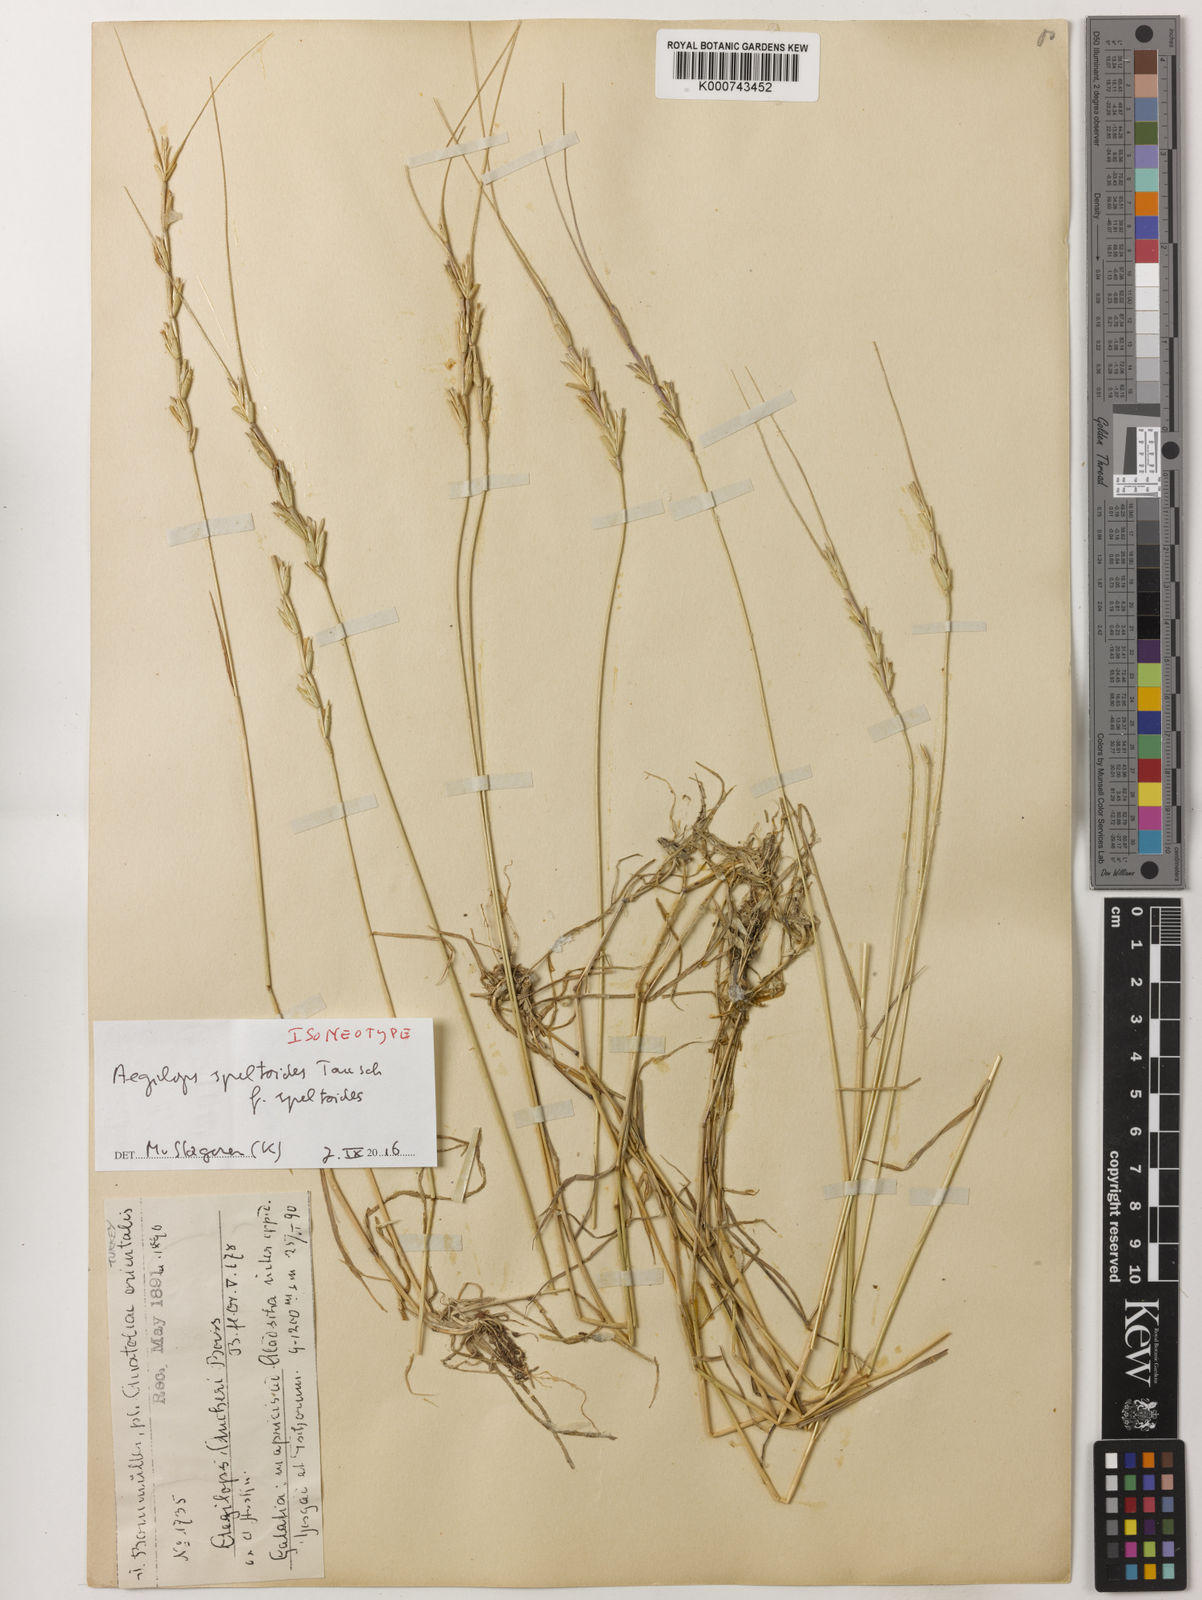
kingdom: Plantae
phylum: Tracheophyta
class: Liliopsida
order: Poales
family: Poaceae
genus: Aegilops
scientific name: Aegilops speltoides
